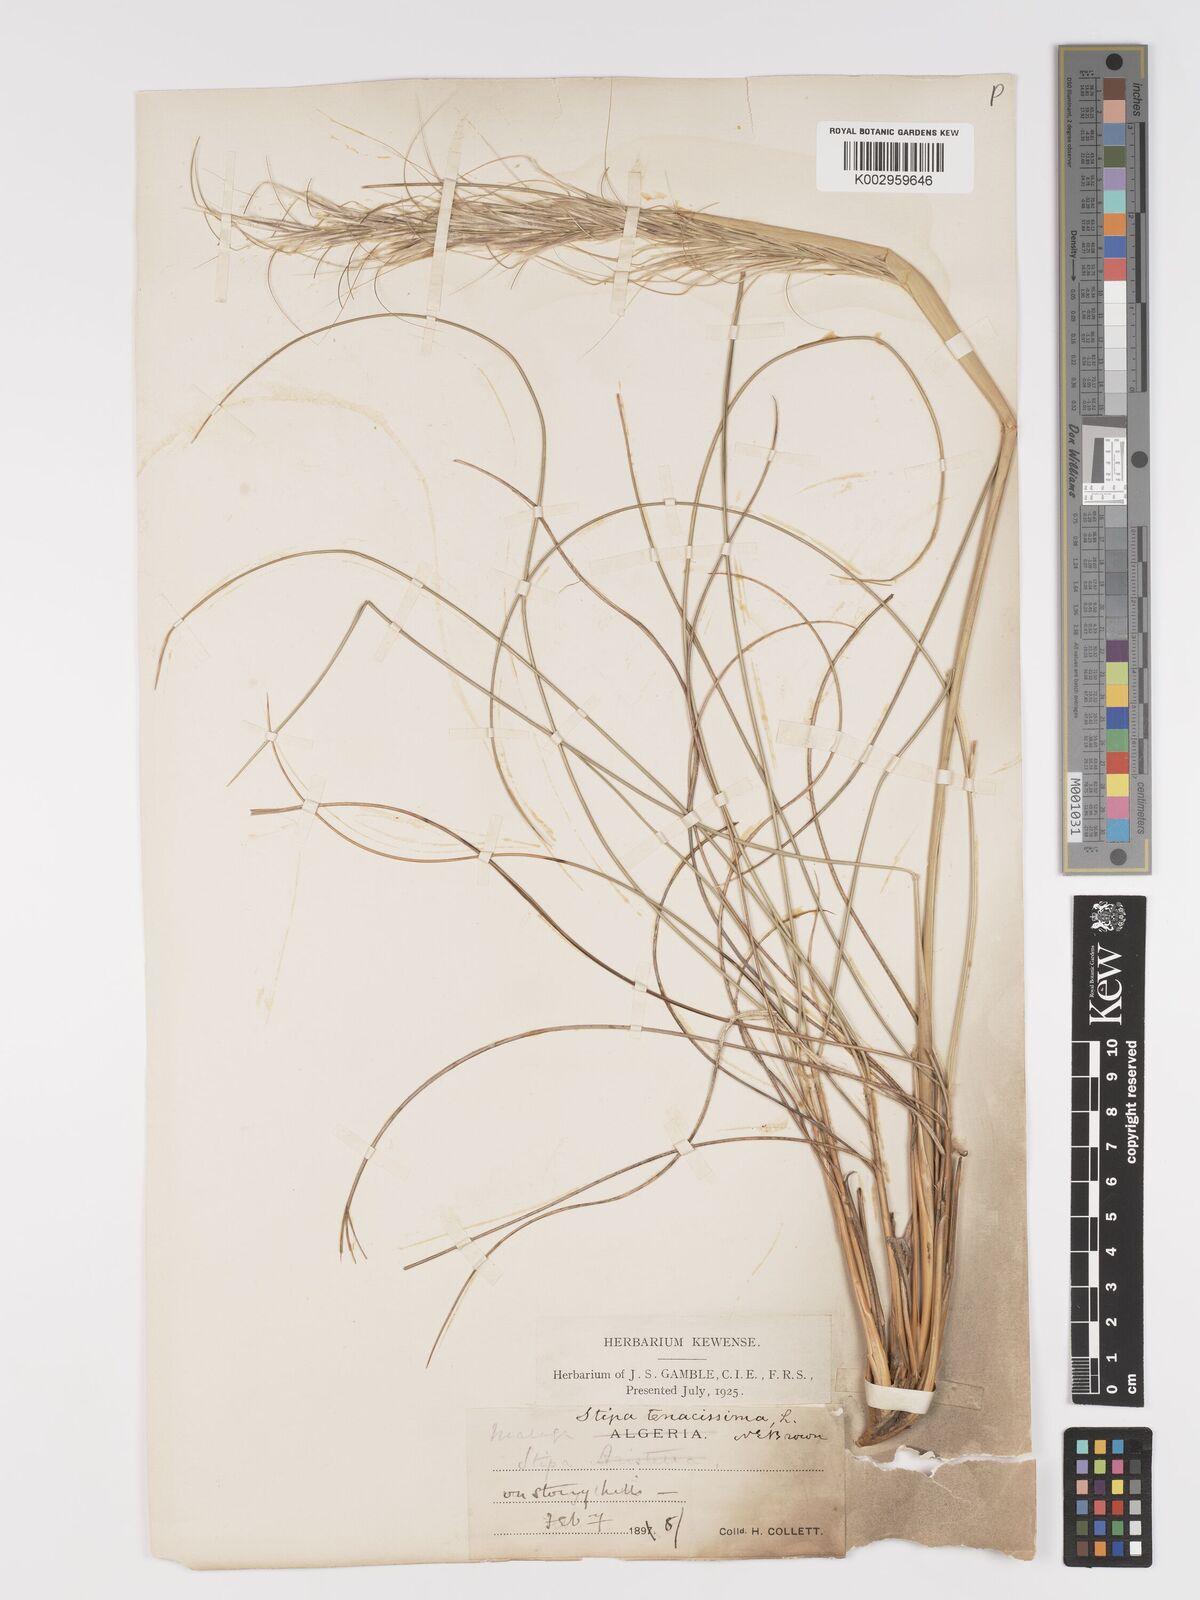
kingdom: Plantae
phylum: Tracheophyta
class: Liliopsida
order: Poales
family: Poaceae
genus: Macrochloa
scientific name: Macrochloa tenacissima
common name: Alfa grass
